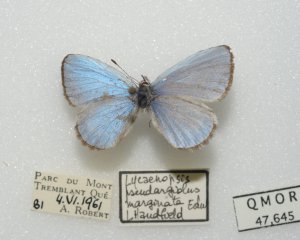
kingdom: Animalia
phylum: Arthropoda
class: Insecta
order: Lepidoptera
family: Lycaenidae
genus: Celastrina
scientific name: Celastrina lucia
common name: Northern Spring Azure
